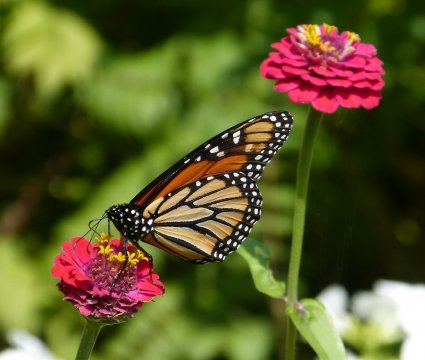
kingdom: Animalia
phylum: Arthropoda
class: Insecta
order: Lepidoptera
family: Nymphalidae
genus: Danaus
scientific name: Danaus plexippus
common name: Monarch
